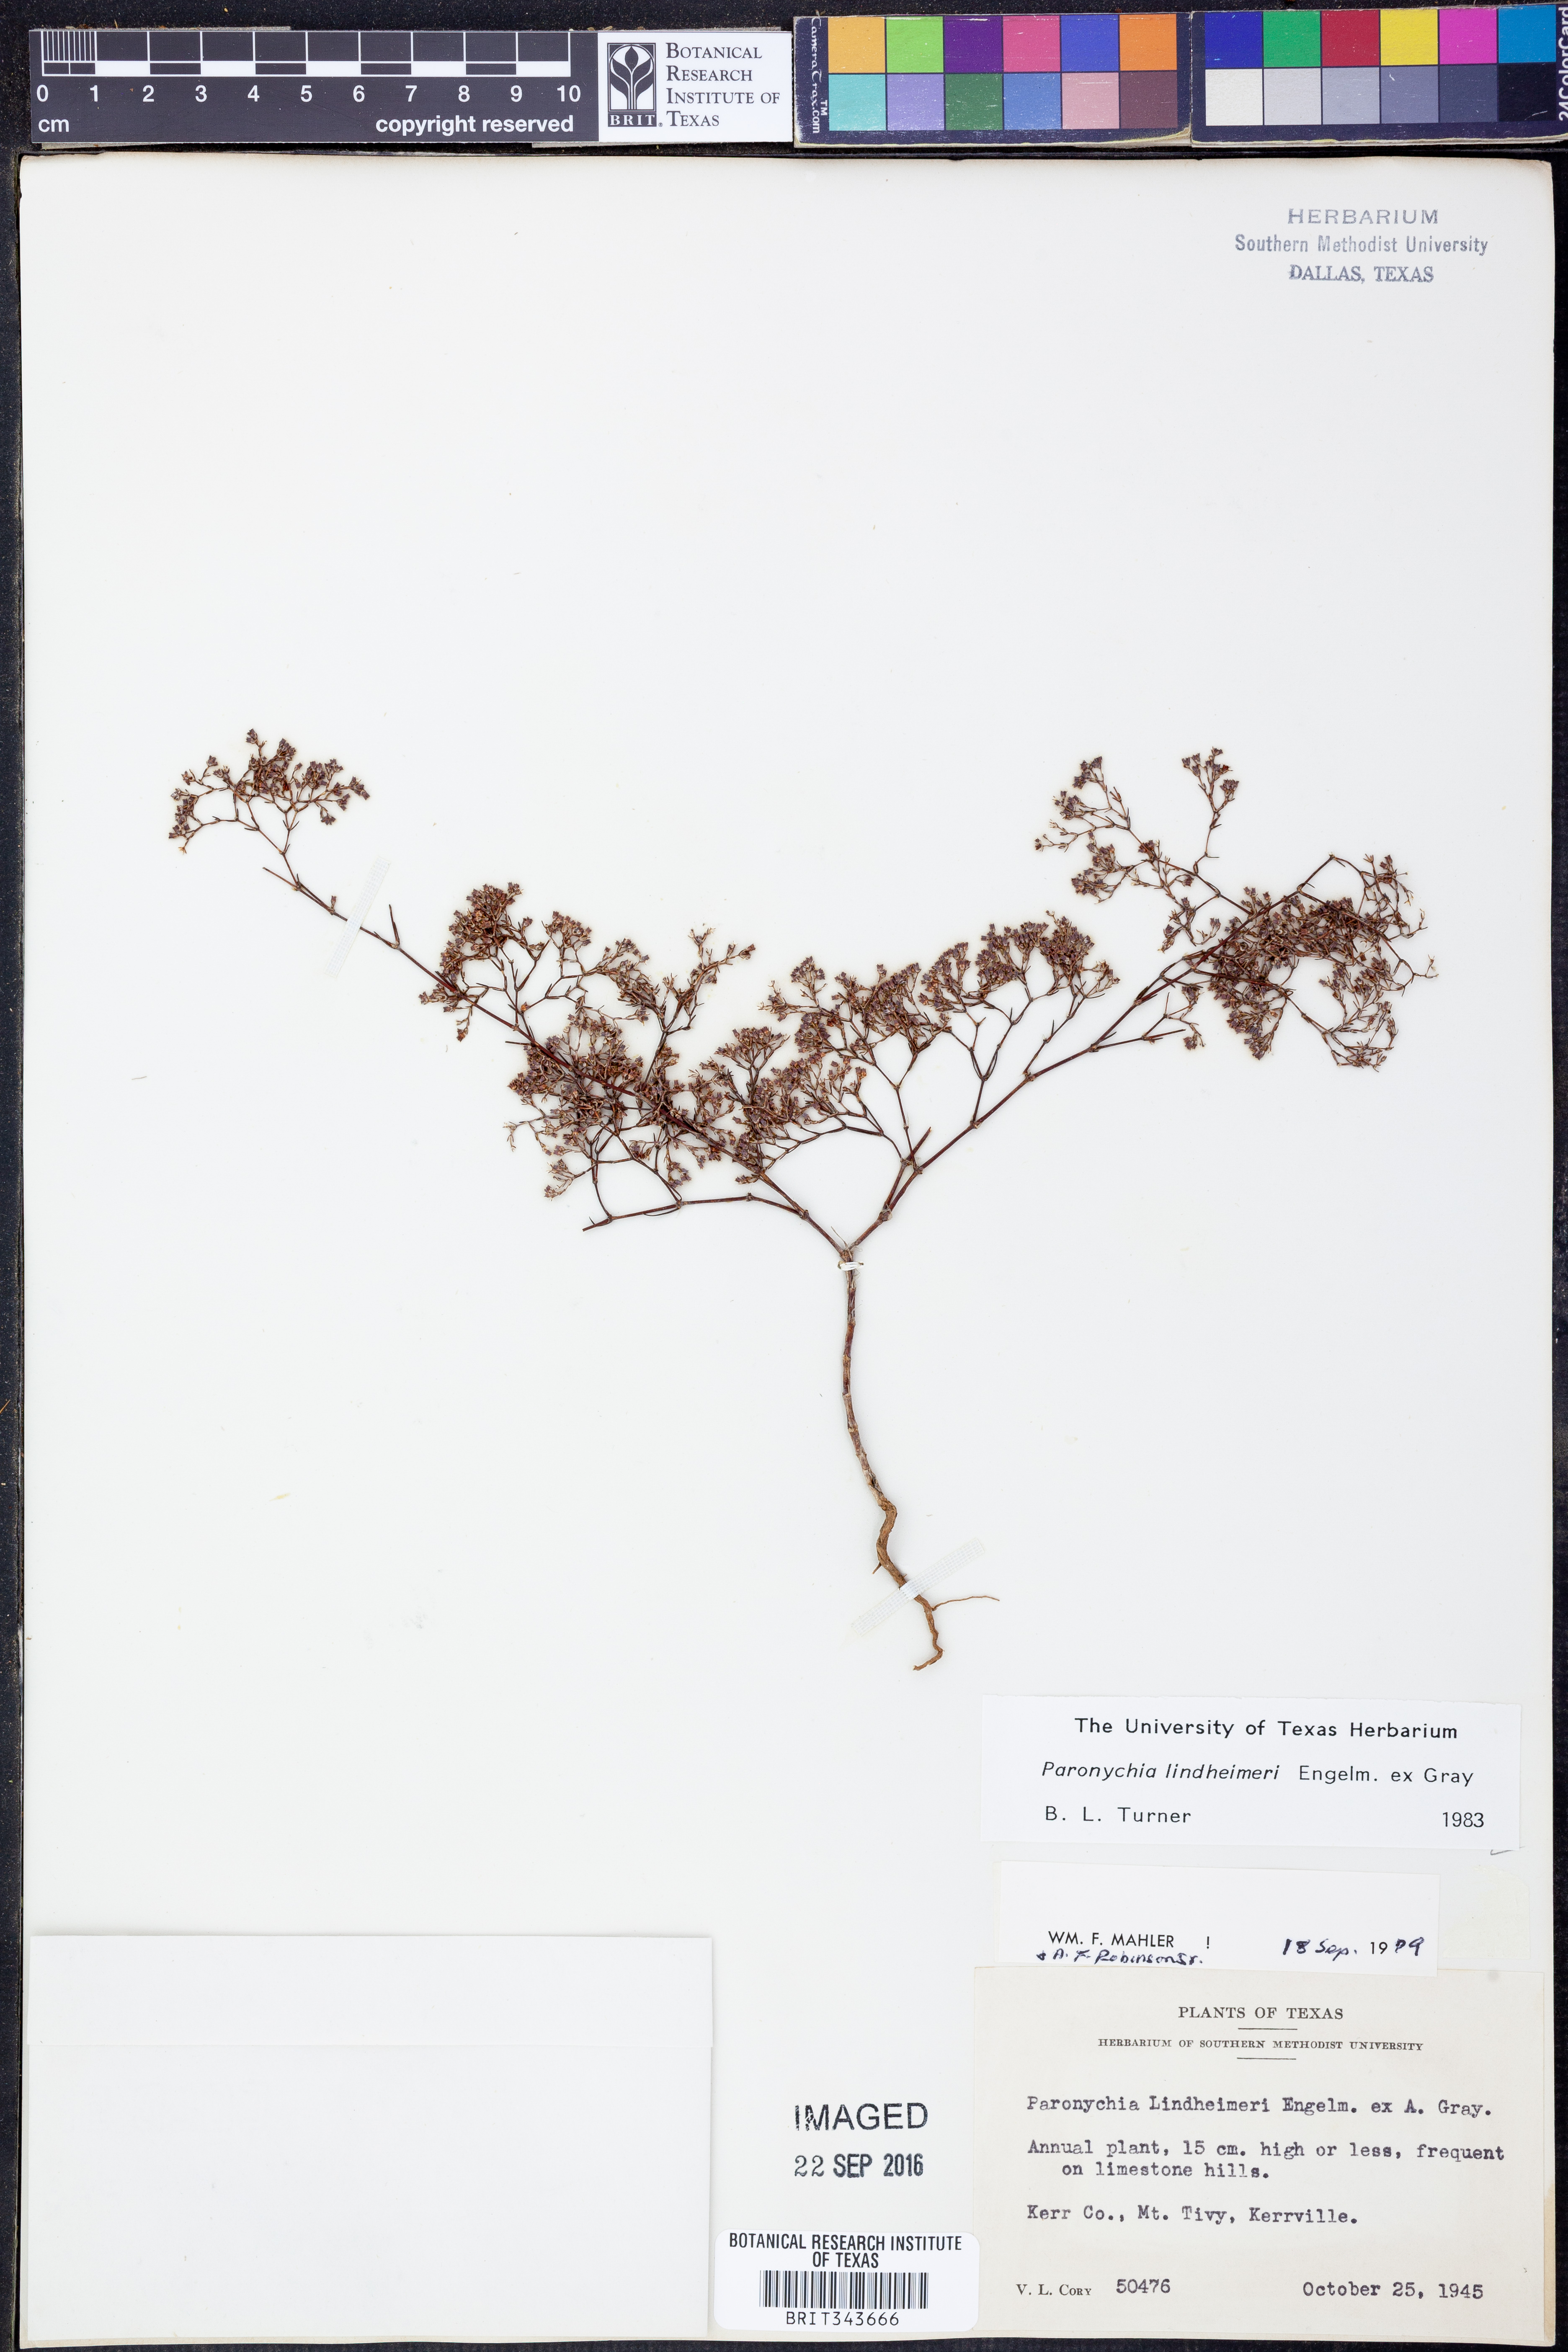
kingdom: Plantae
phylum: Tracheophyta
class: Magnoliopsida
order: Caryophyllales
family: Caryophyllaceae
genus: Paronychia
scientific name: Paronychia lindheimeri
